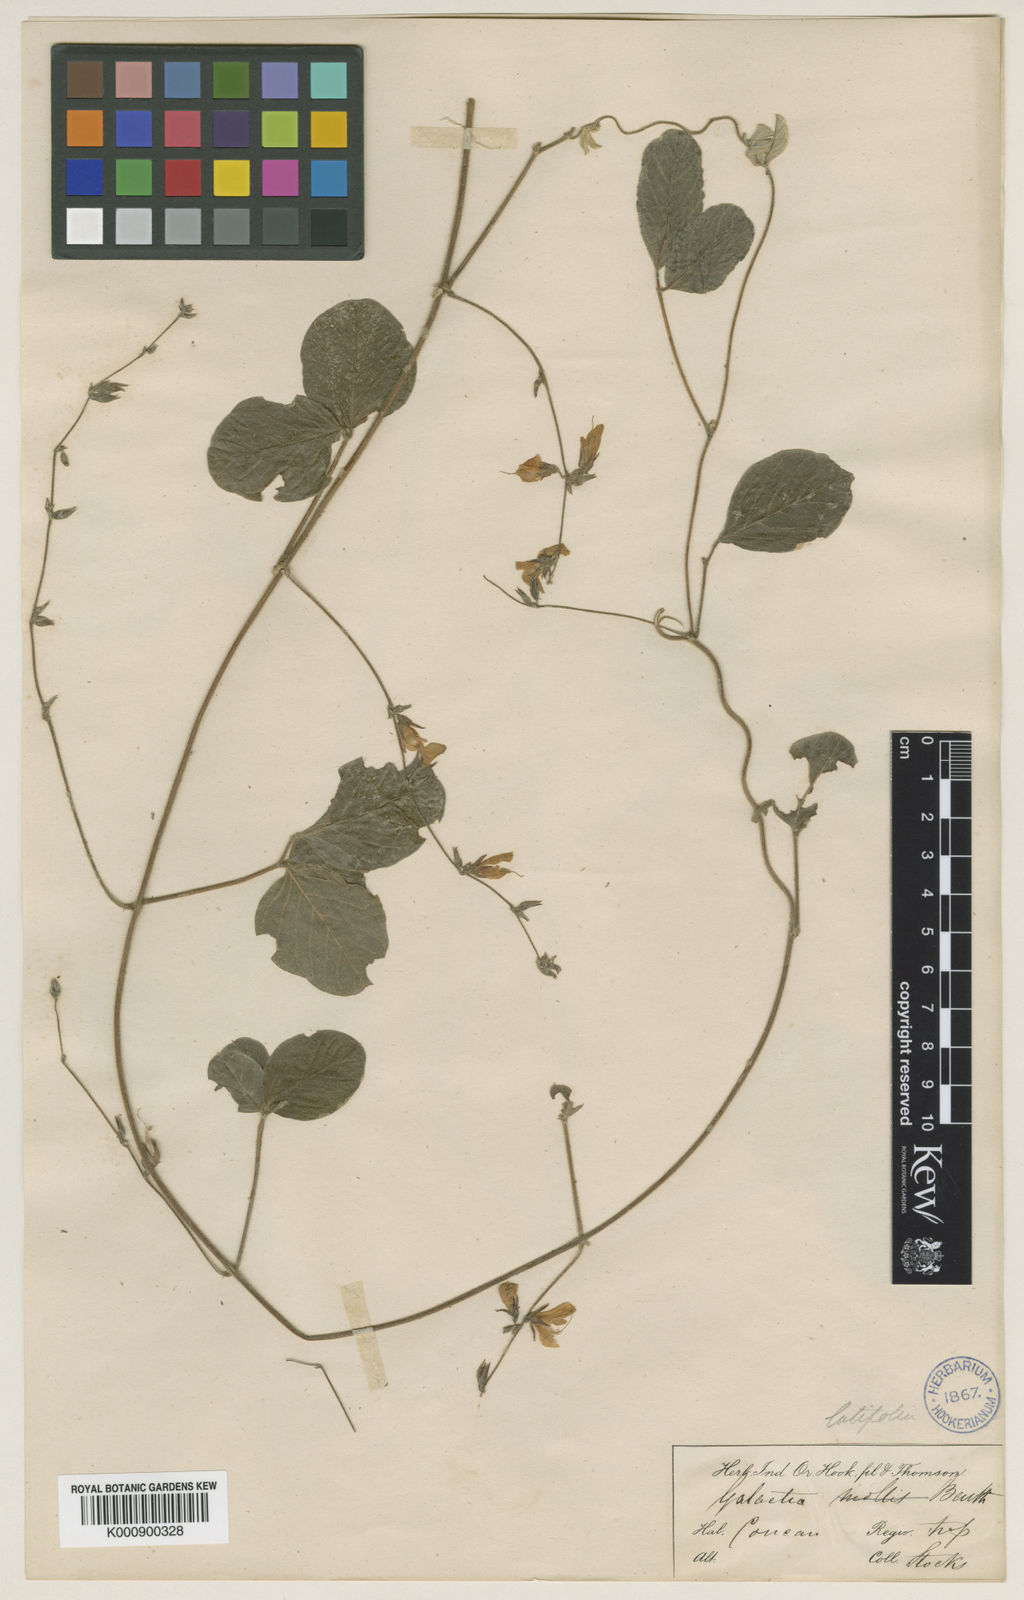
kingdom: Plantae
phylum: Tracheophyta
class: Magnoliopsida
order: Fabales
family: Fabaceae
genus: Galactia
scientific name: Galactia striata
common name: Florida hammock milkpea
